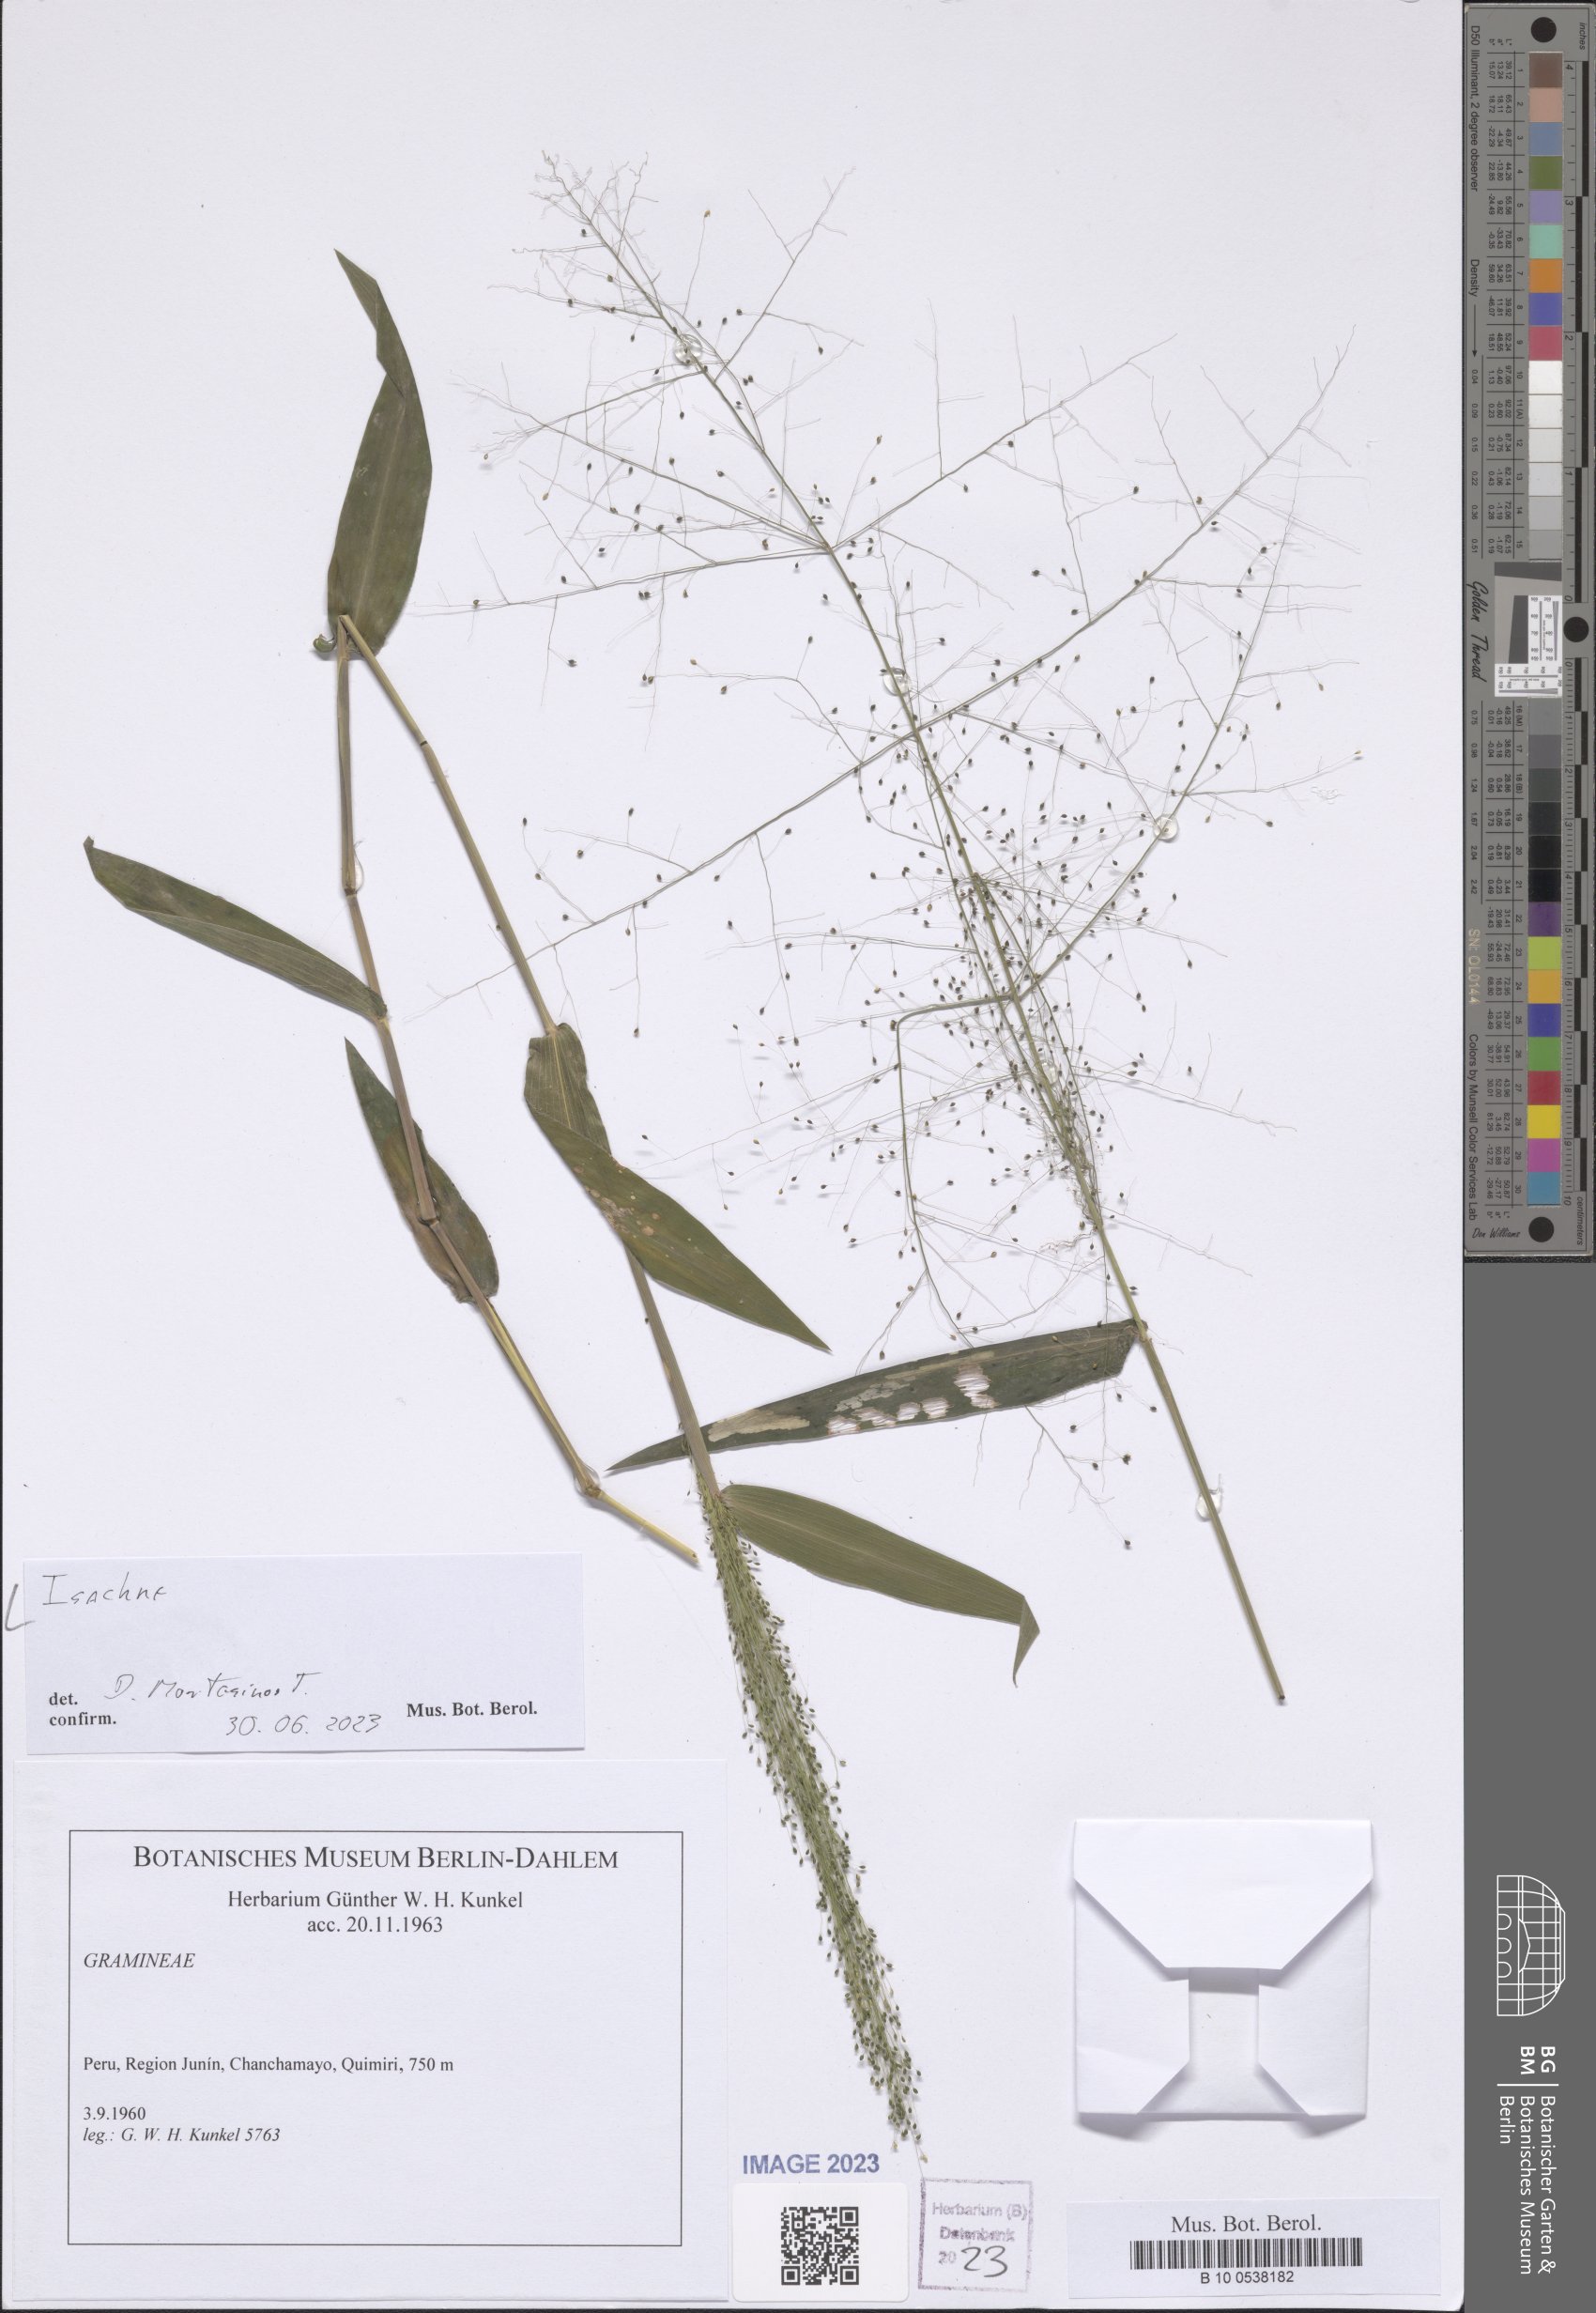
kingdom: Plantae
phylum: Tracheophyta
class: Liliopsida
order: Poales
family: Poaceae
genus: Isachne
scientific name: Isachne
